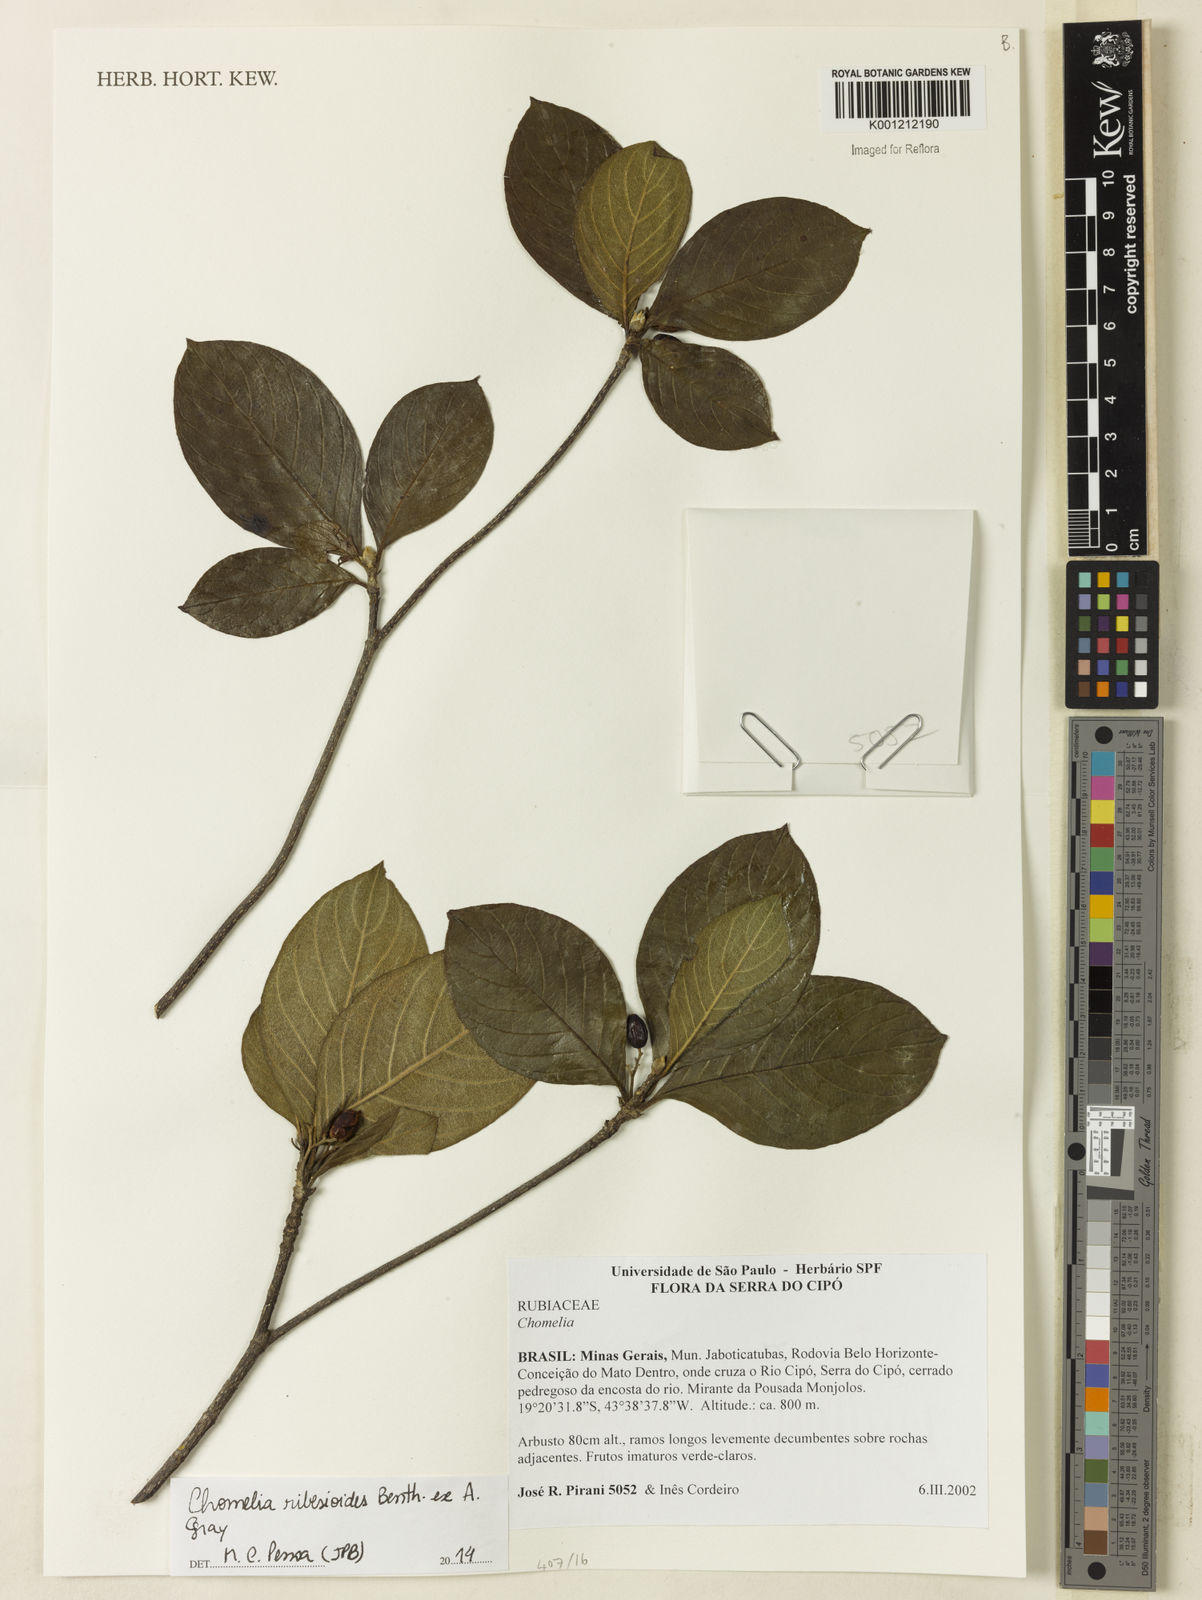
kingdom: Plantae
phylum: Tracheophyta
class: Magnoliopsida
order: Gentianales
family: Rubiaceae
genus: Chomelia
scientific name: Chomelia ribesioides
